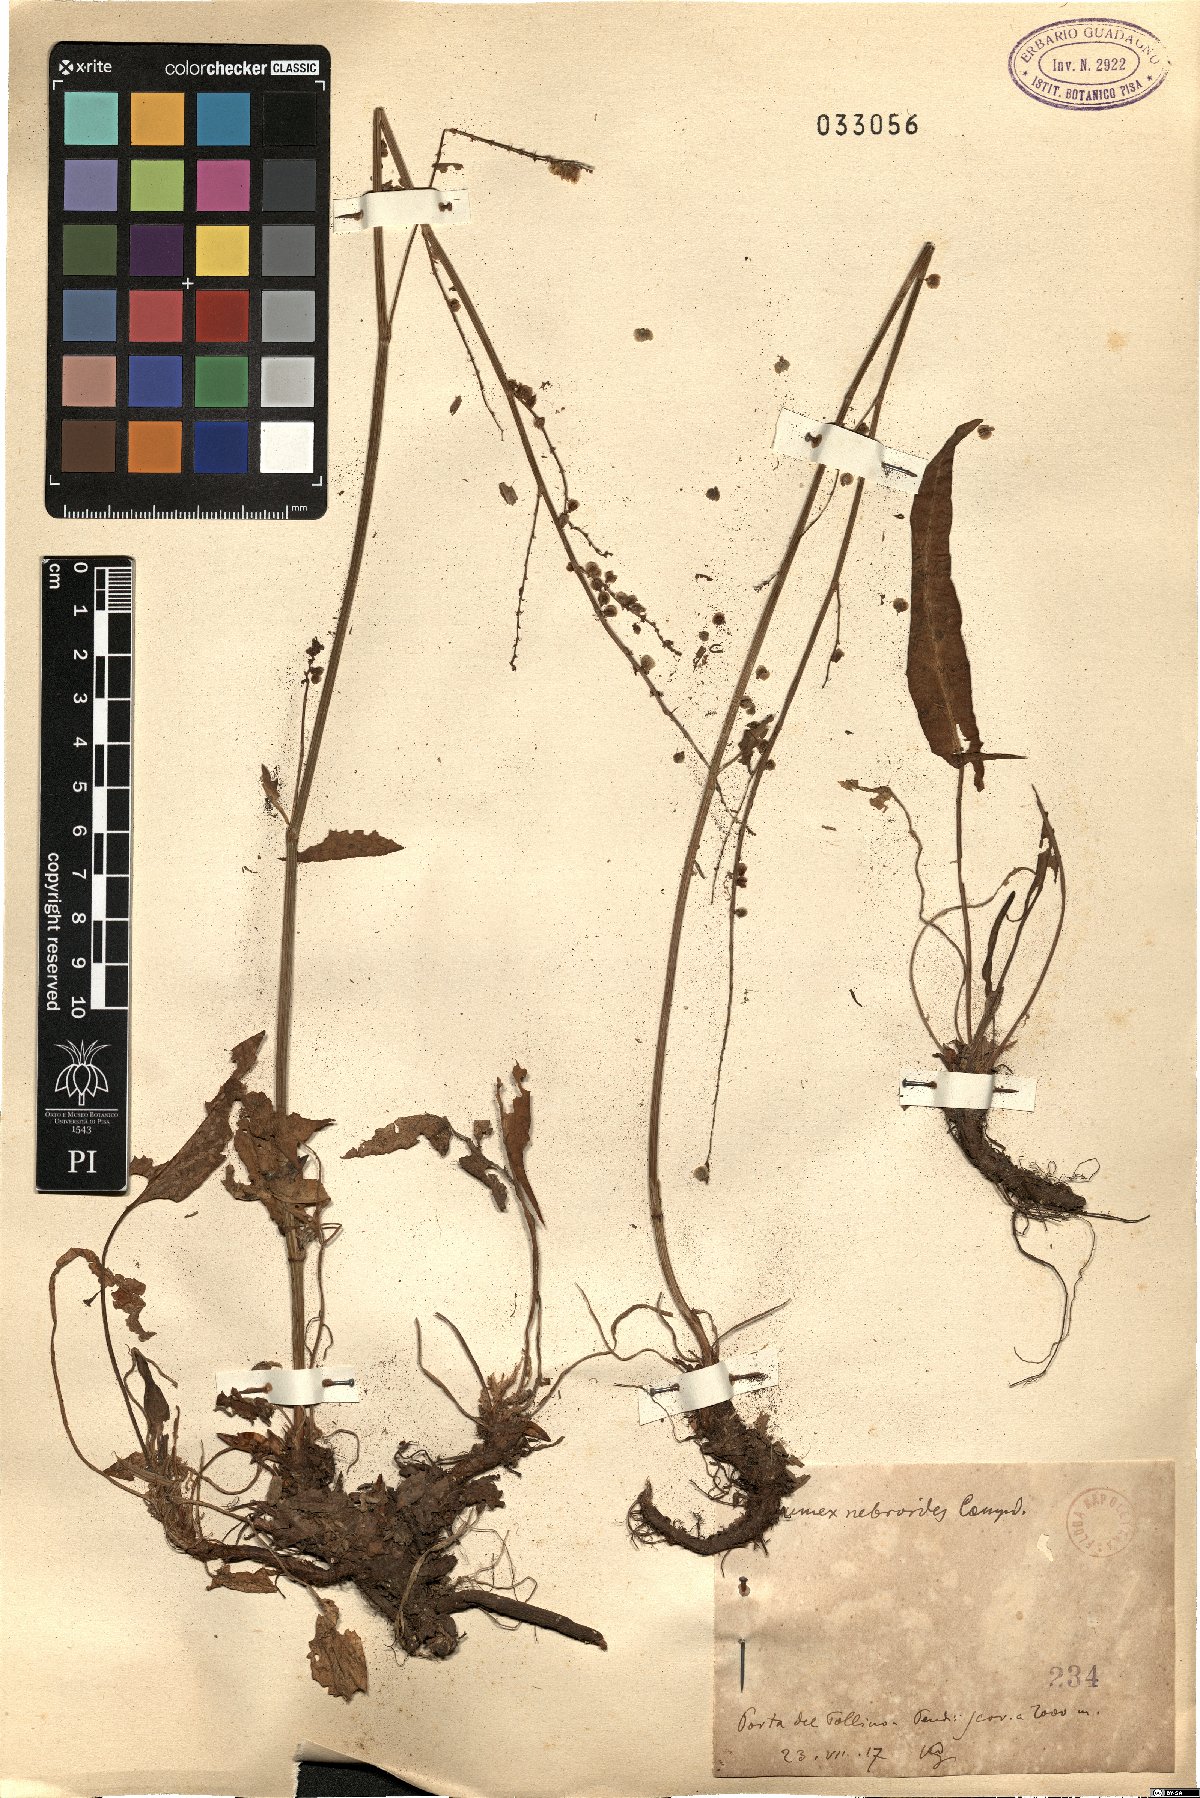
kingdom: Plantae
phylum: Tracheophyta
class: Magnoliopsida
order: Caryophyllales
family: Polygonaceae
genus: Rumex
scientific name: Rumex nebroides
